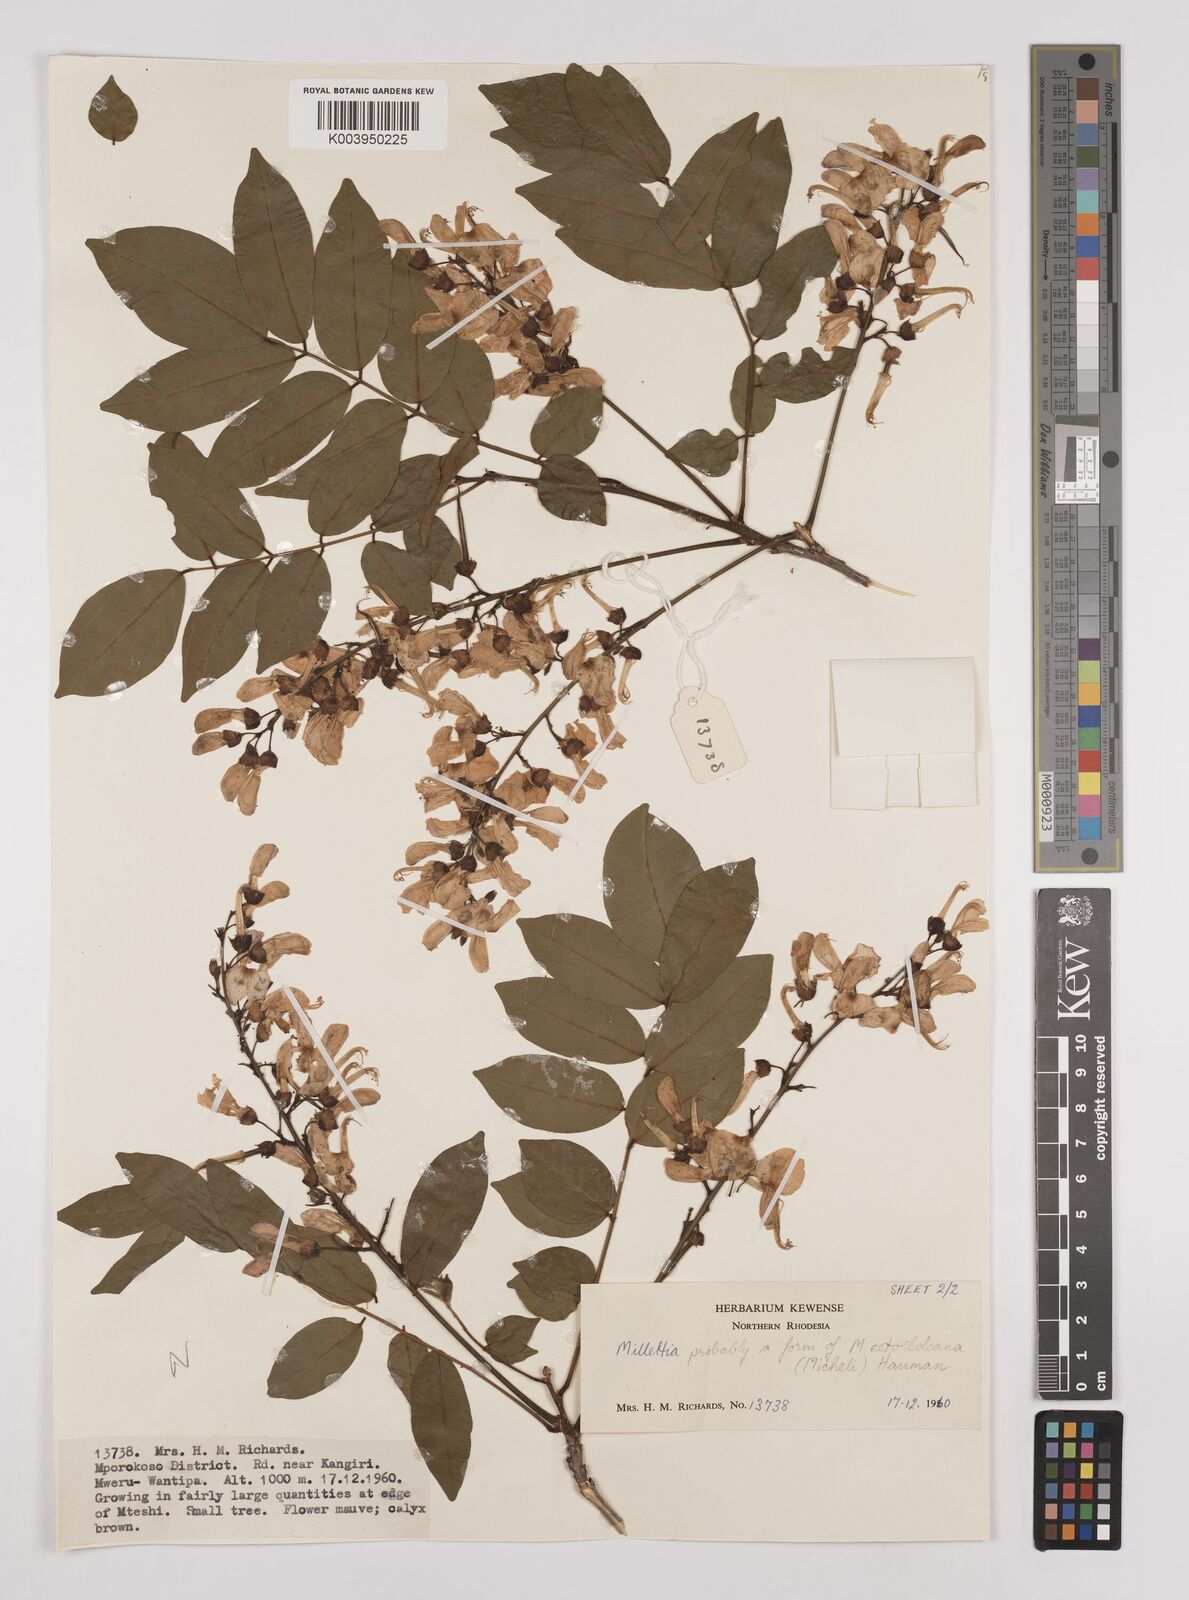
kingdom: Plantae
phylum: Tracheophyta
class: Magnoliopsida
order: Fabales
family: Fabaceae
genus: Millettia
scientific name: Millettia eetveldeana
